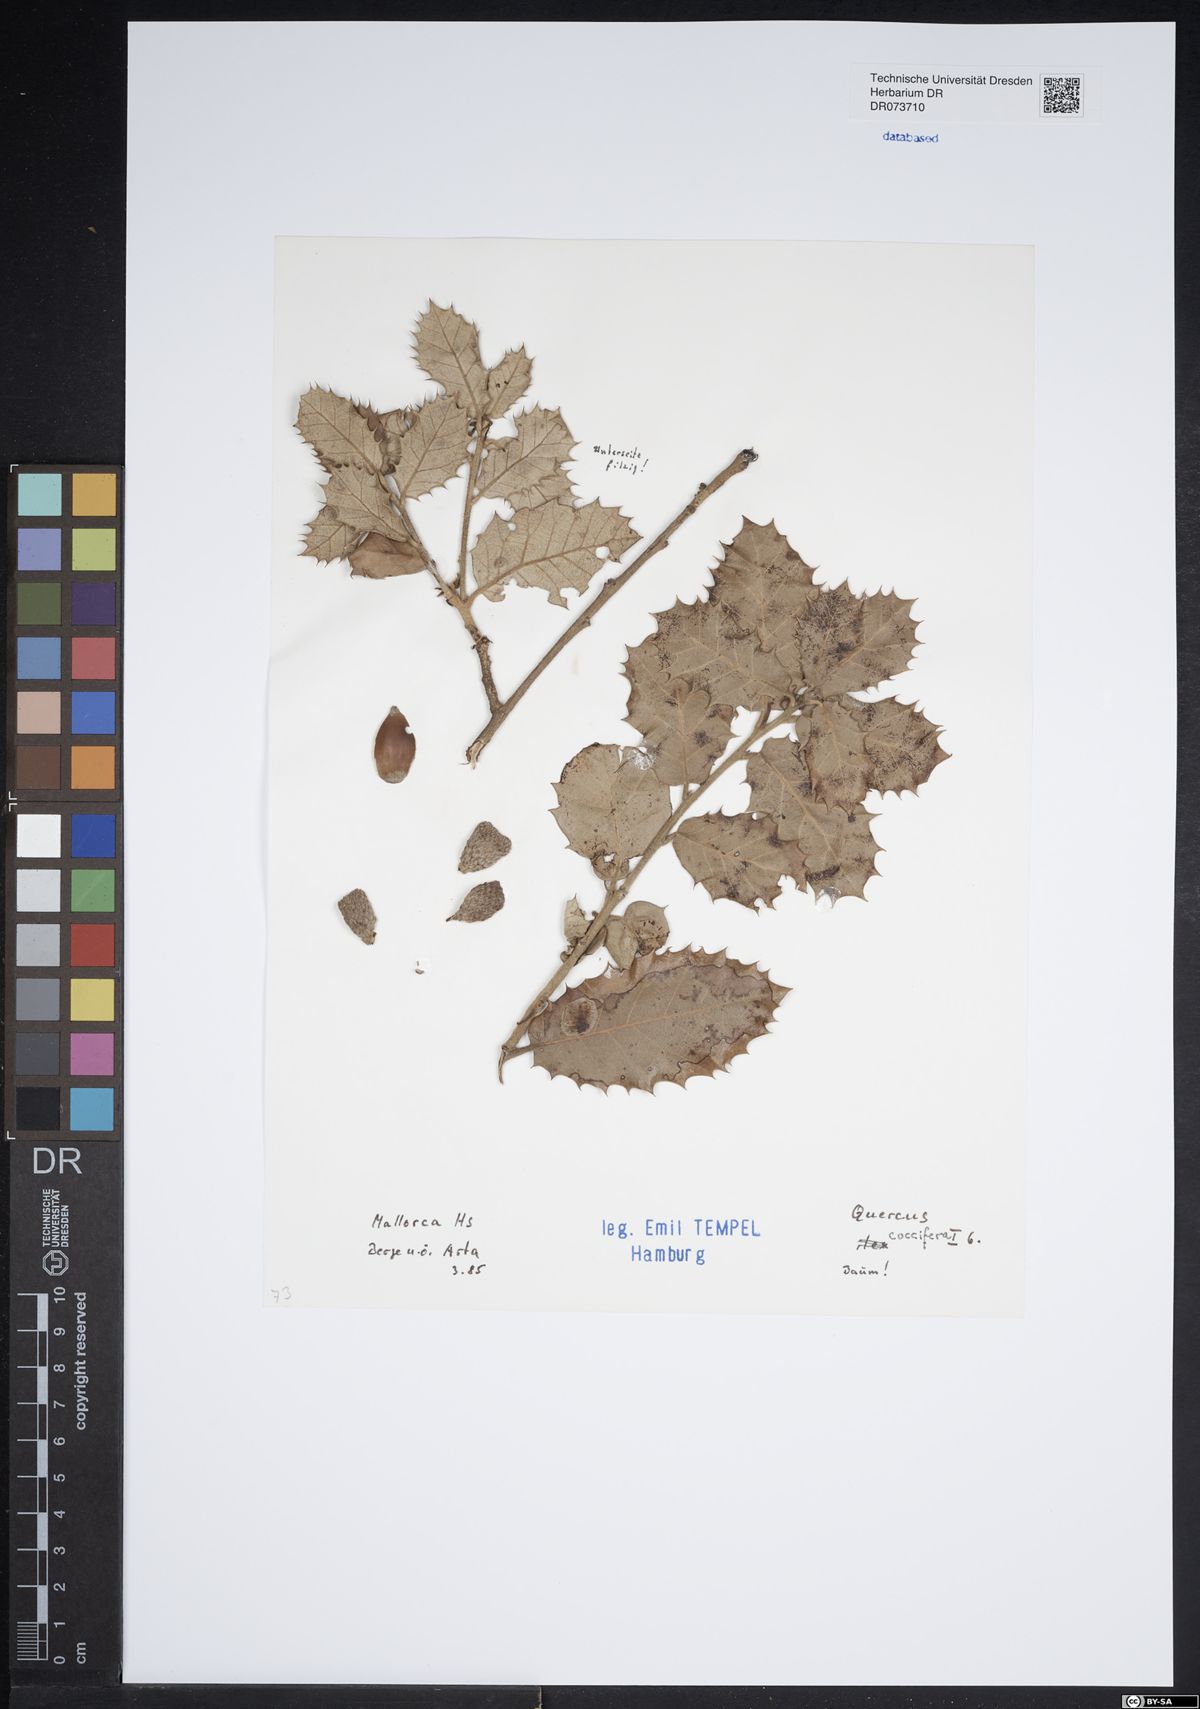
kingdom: Plantae
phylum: Tracheophyta
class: Magnoliopsida
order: Fagales
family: Fagaceae
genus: Quercus
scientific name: Quercus coccifera
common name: Kermes oak
